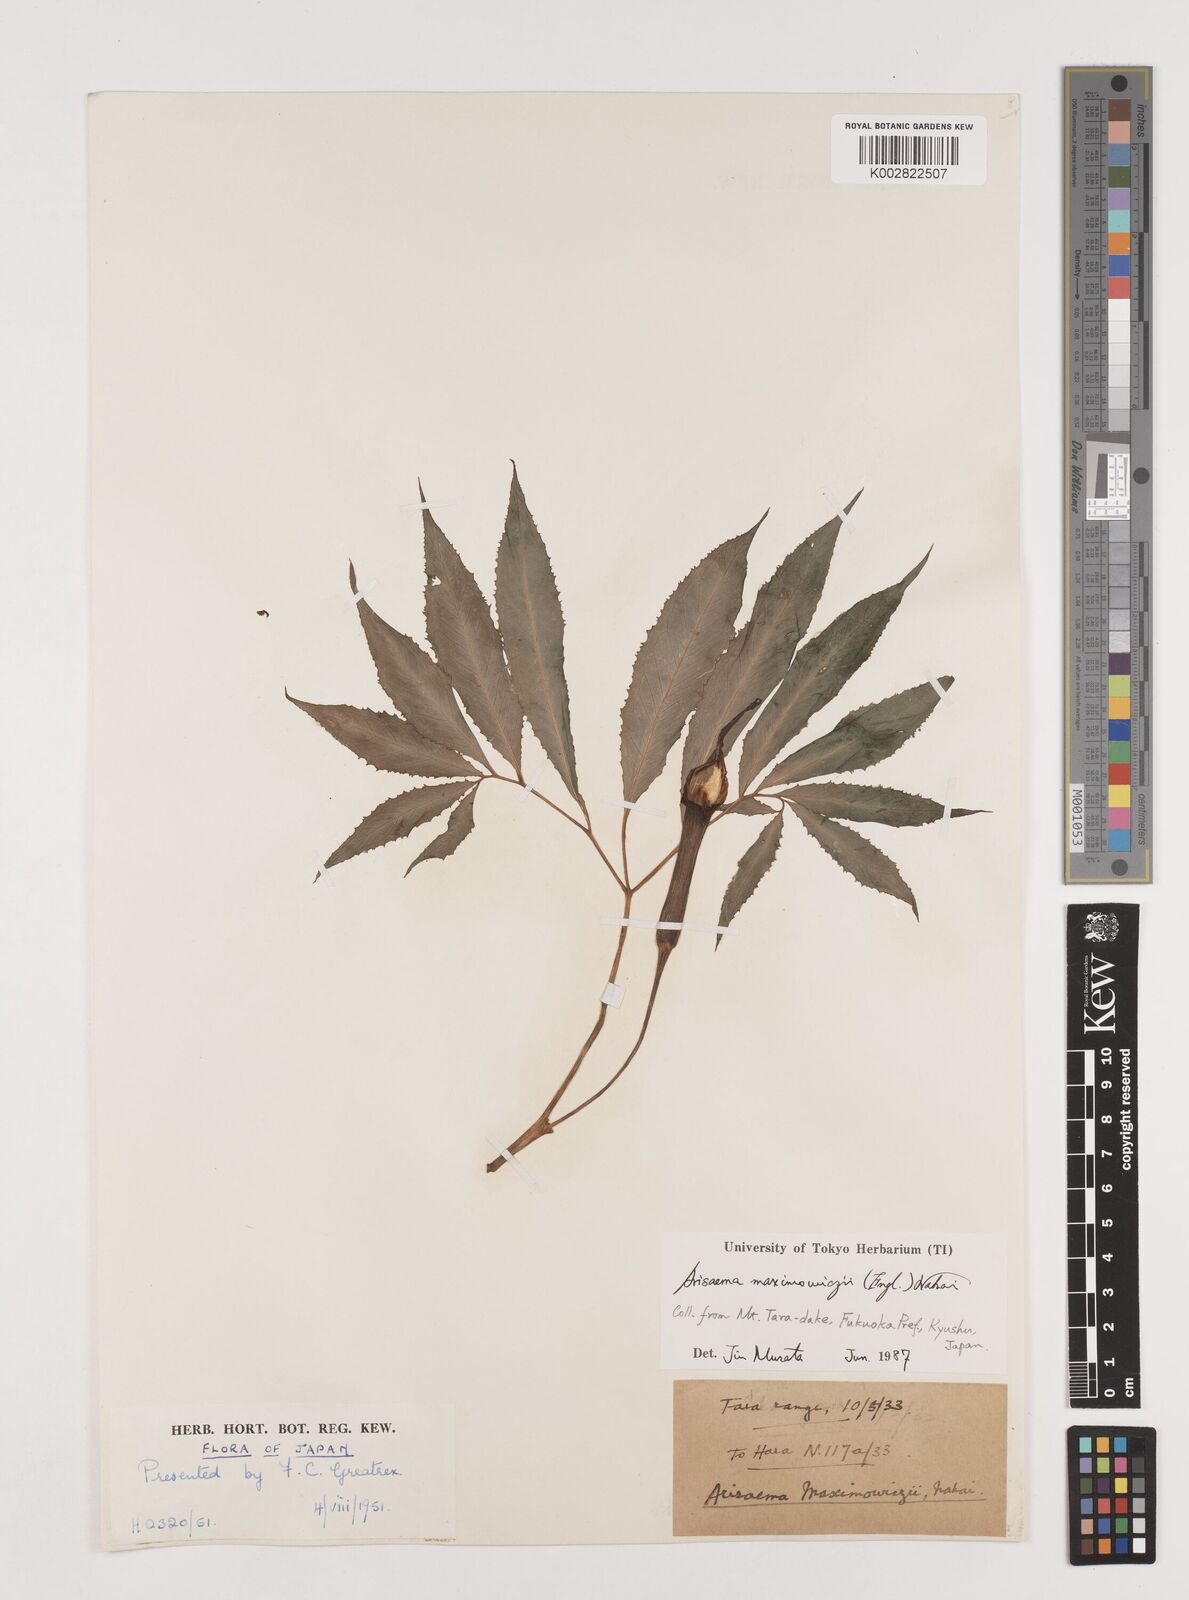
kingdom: Plantae
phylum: Tracheophyta
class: Liliopsida
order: Alismatales
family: Araceae
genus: Arisaema
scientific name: Arisaema maximowiczii
